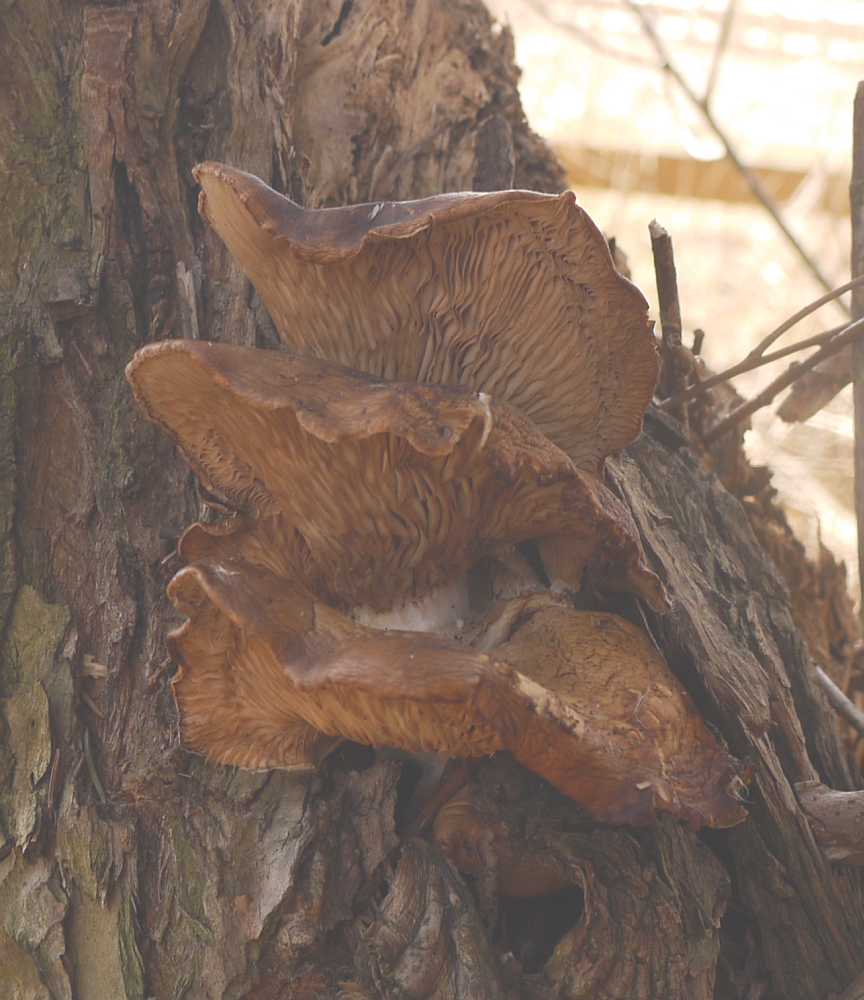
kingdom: Fungi
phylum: Basidiomycota
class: Agaricomycetes
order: Agaricales
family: Pleurotaceae
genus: Pleurotus
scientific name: Pleurotus ostreatus
